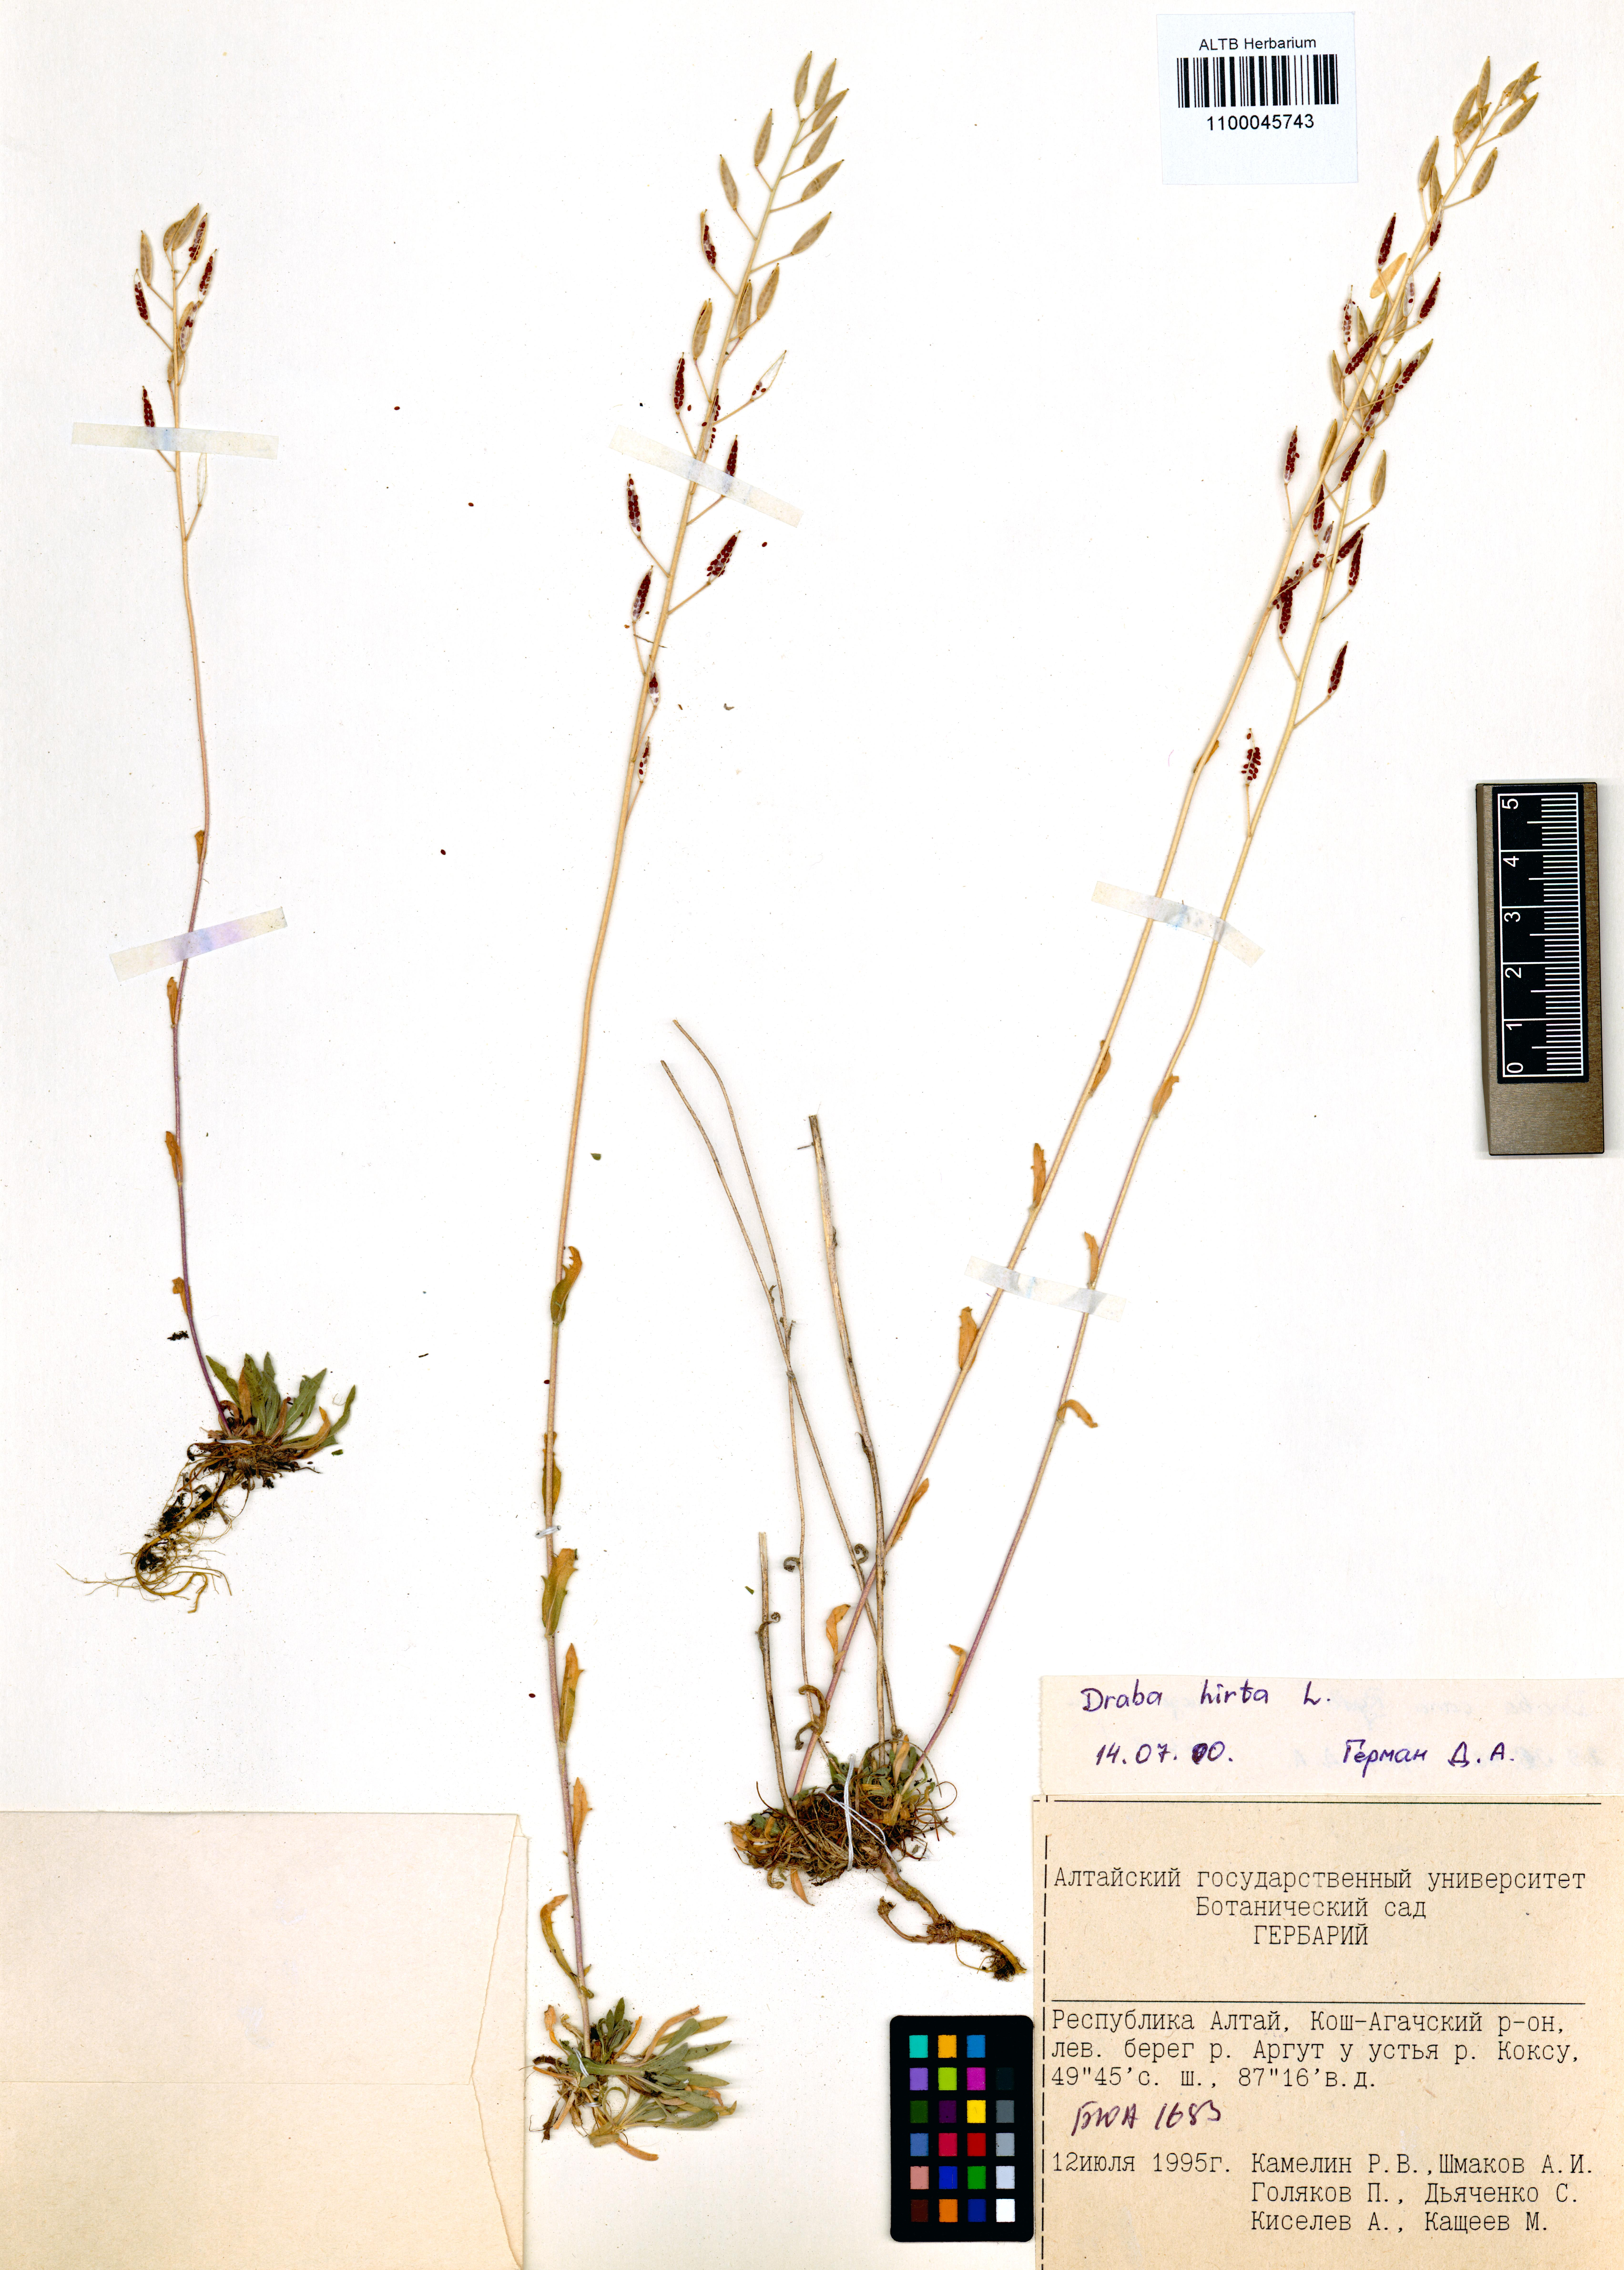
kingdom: Plantae
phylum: Tracheophyta
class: Magnoliopsida
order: Brassicales
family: Brassicaceae
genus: Draba
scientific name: Draba glabella
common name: Glaucous draba
